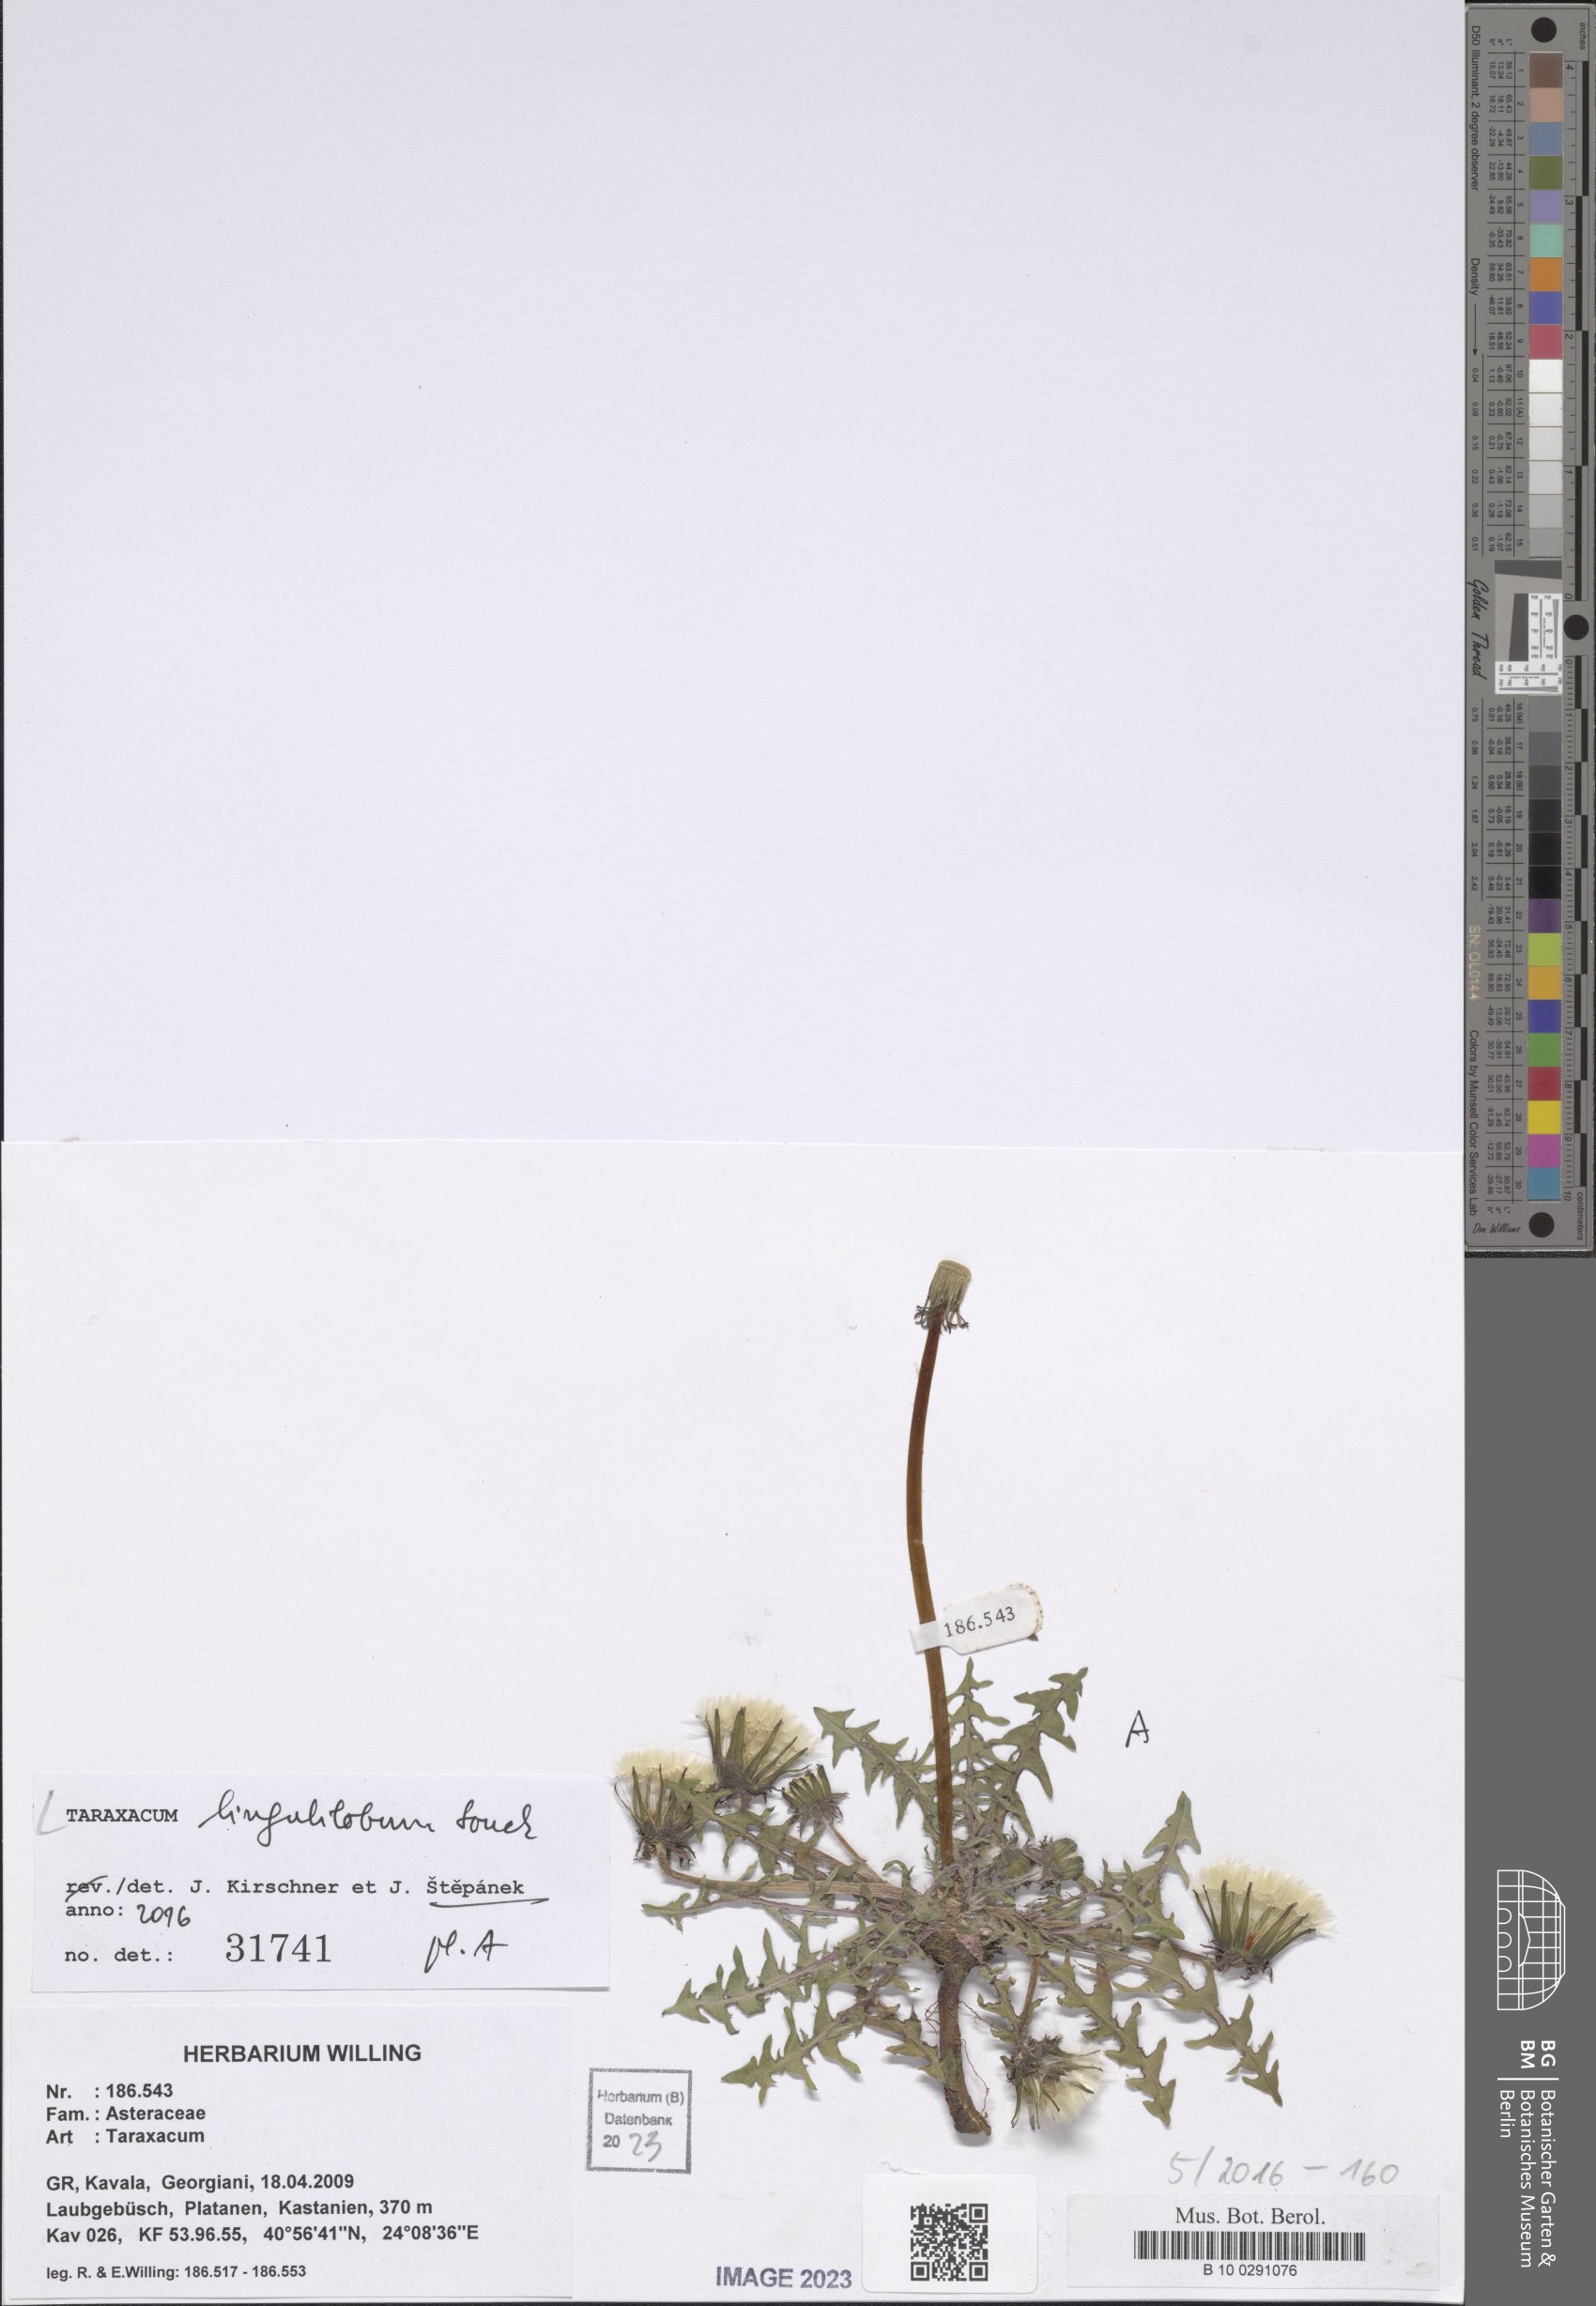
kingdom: Plantae
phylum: Tracheophyta
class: Magnoliopsida
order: Asterales
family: Asteraceae
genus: Taraxacum
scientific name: Taraxacum lingulilobum
